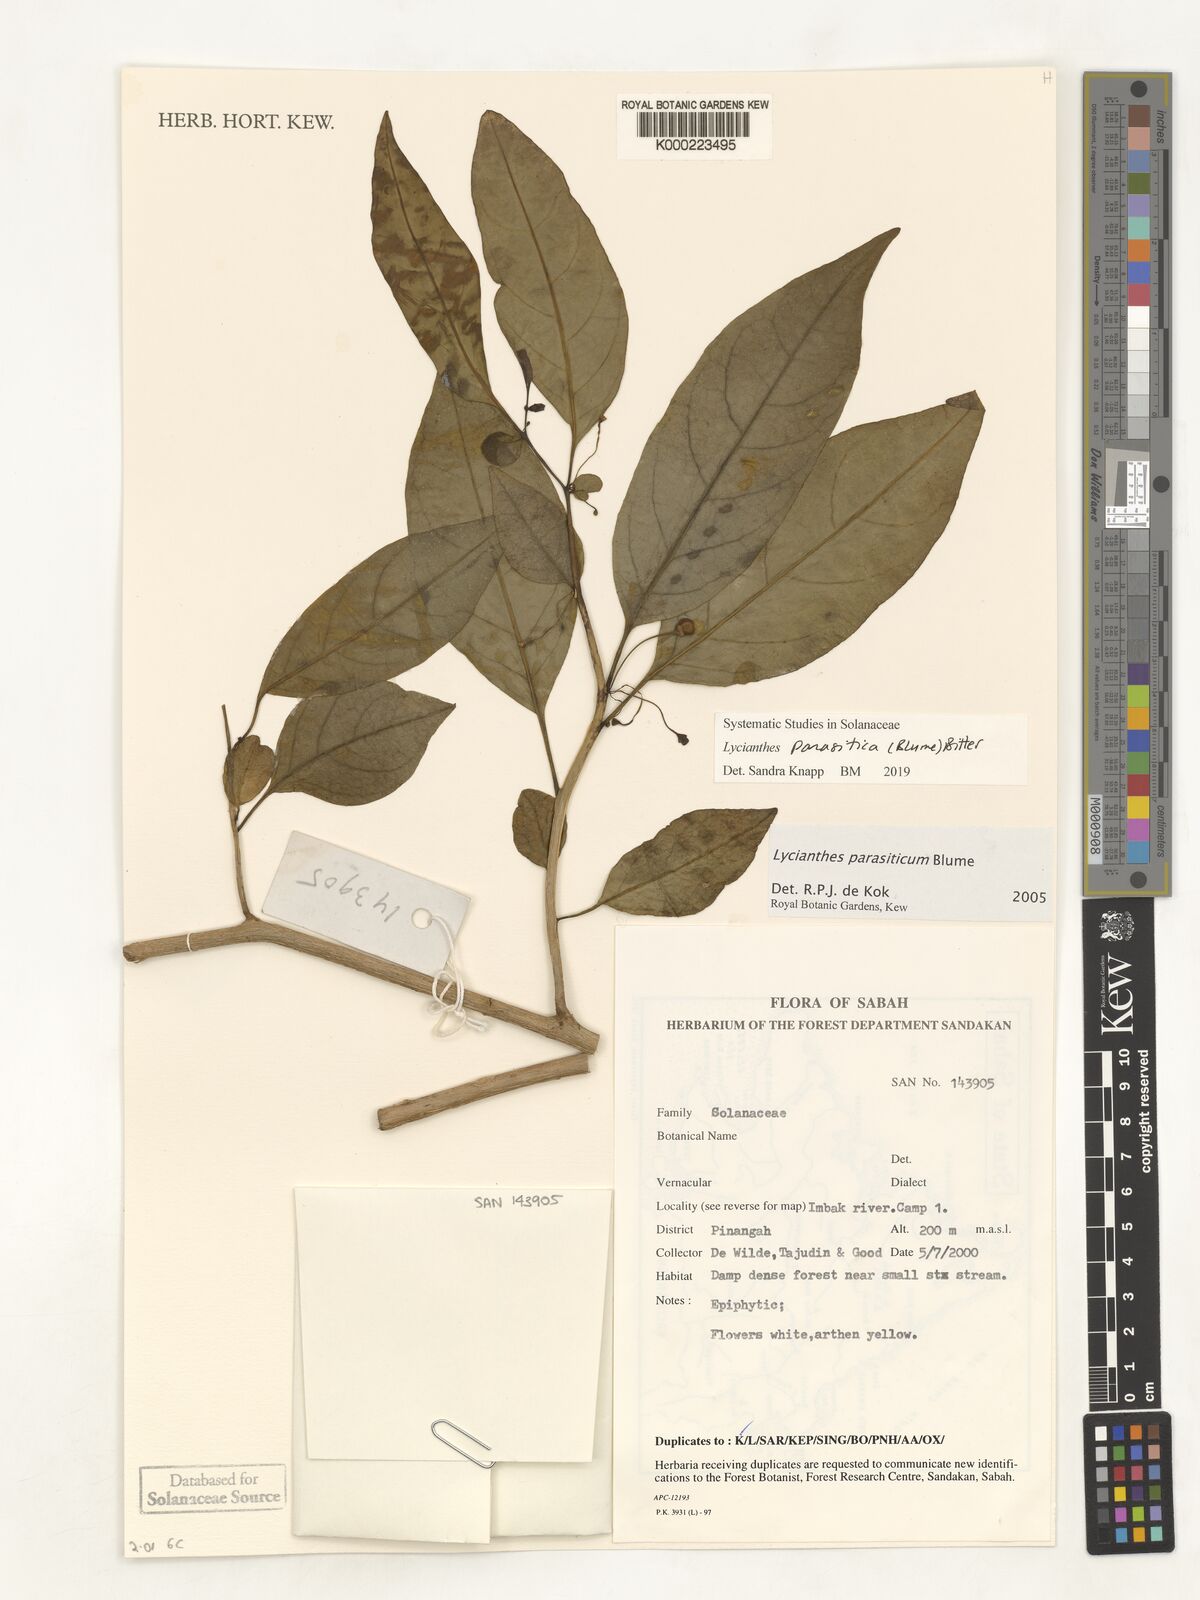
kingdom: Plantae
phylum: Tracheophyta
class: Magnoliopsida
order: Solanales
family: Solanaceae
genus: Lycianthes
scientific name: Lycianthes parasitica
